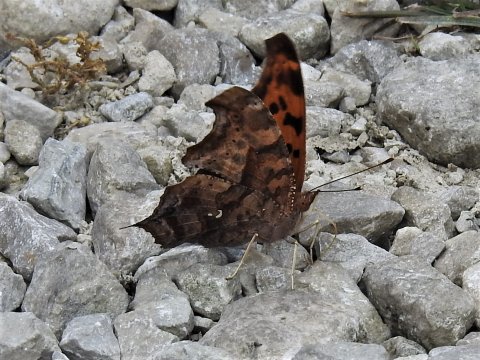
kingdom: Animalia
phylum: Arthropoda
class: Insecta
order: Lepidoptera
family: Nymphalidae
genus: Polygonia
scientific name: Polygonia interrogationis
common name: Question Mark
